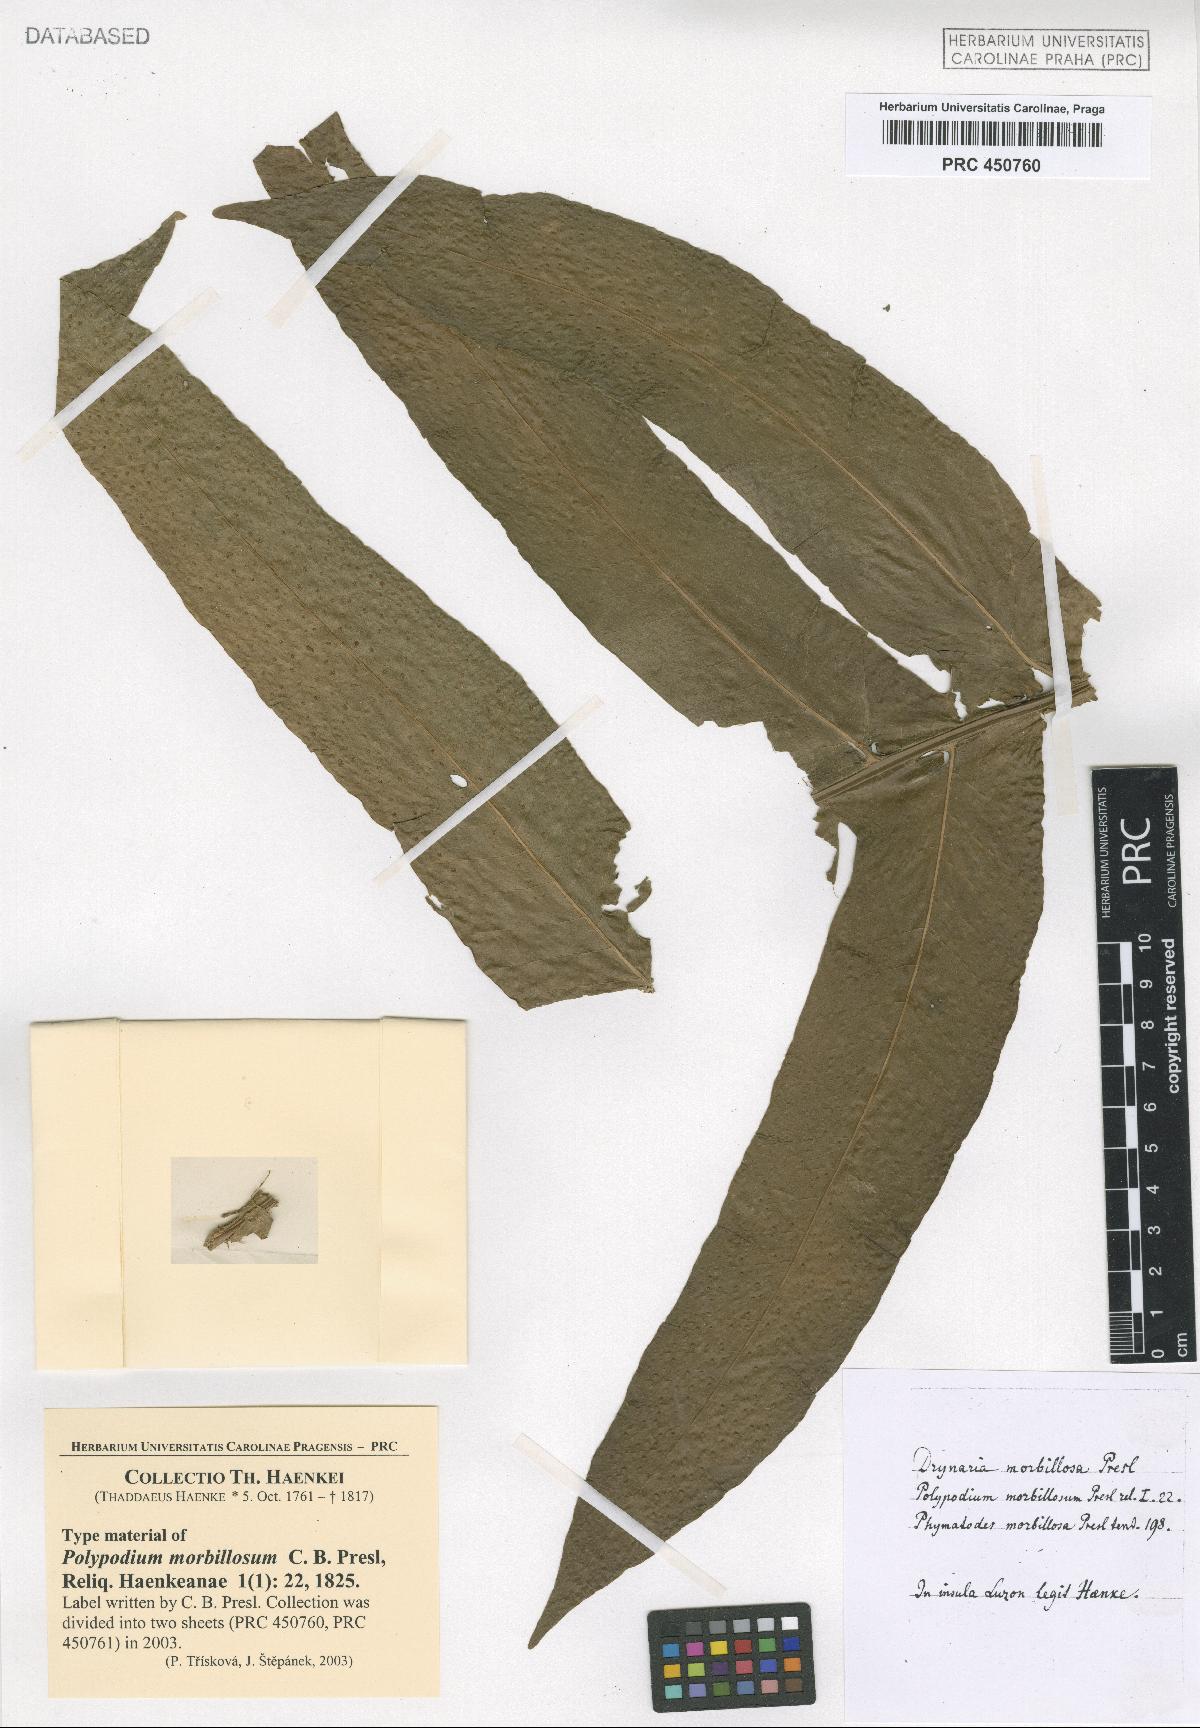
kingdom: Plantae
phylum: Tracheophyta
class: Polypodiopsida
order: Polypodiales
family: Polypodiaceae
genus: Drynaria
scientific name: Drynaria quercifolia
